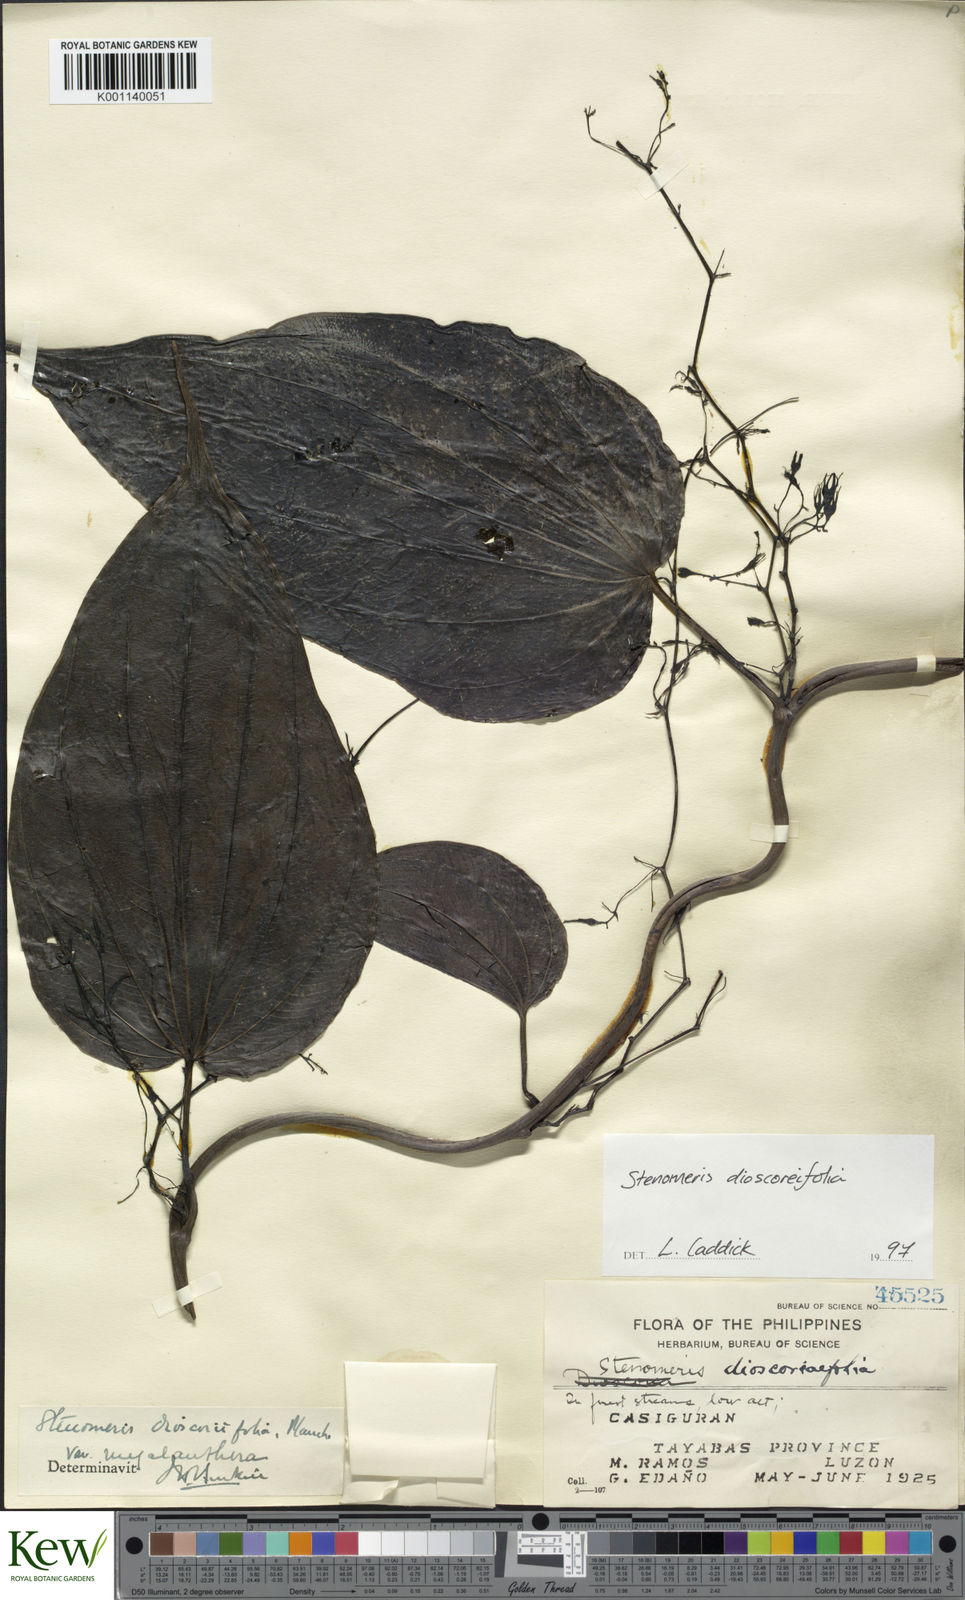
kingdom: Plantae
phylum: Tracheophyta
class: Liliopsida
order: Dioscoreales
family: Dioscoreaceae
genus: Stenomeris
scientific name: Stenomeris dioscoreifolia
